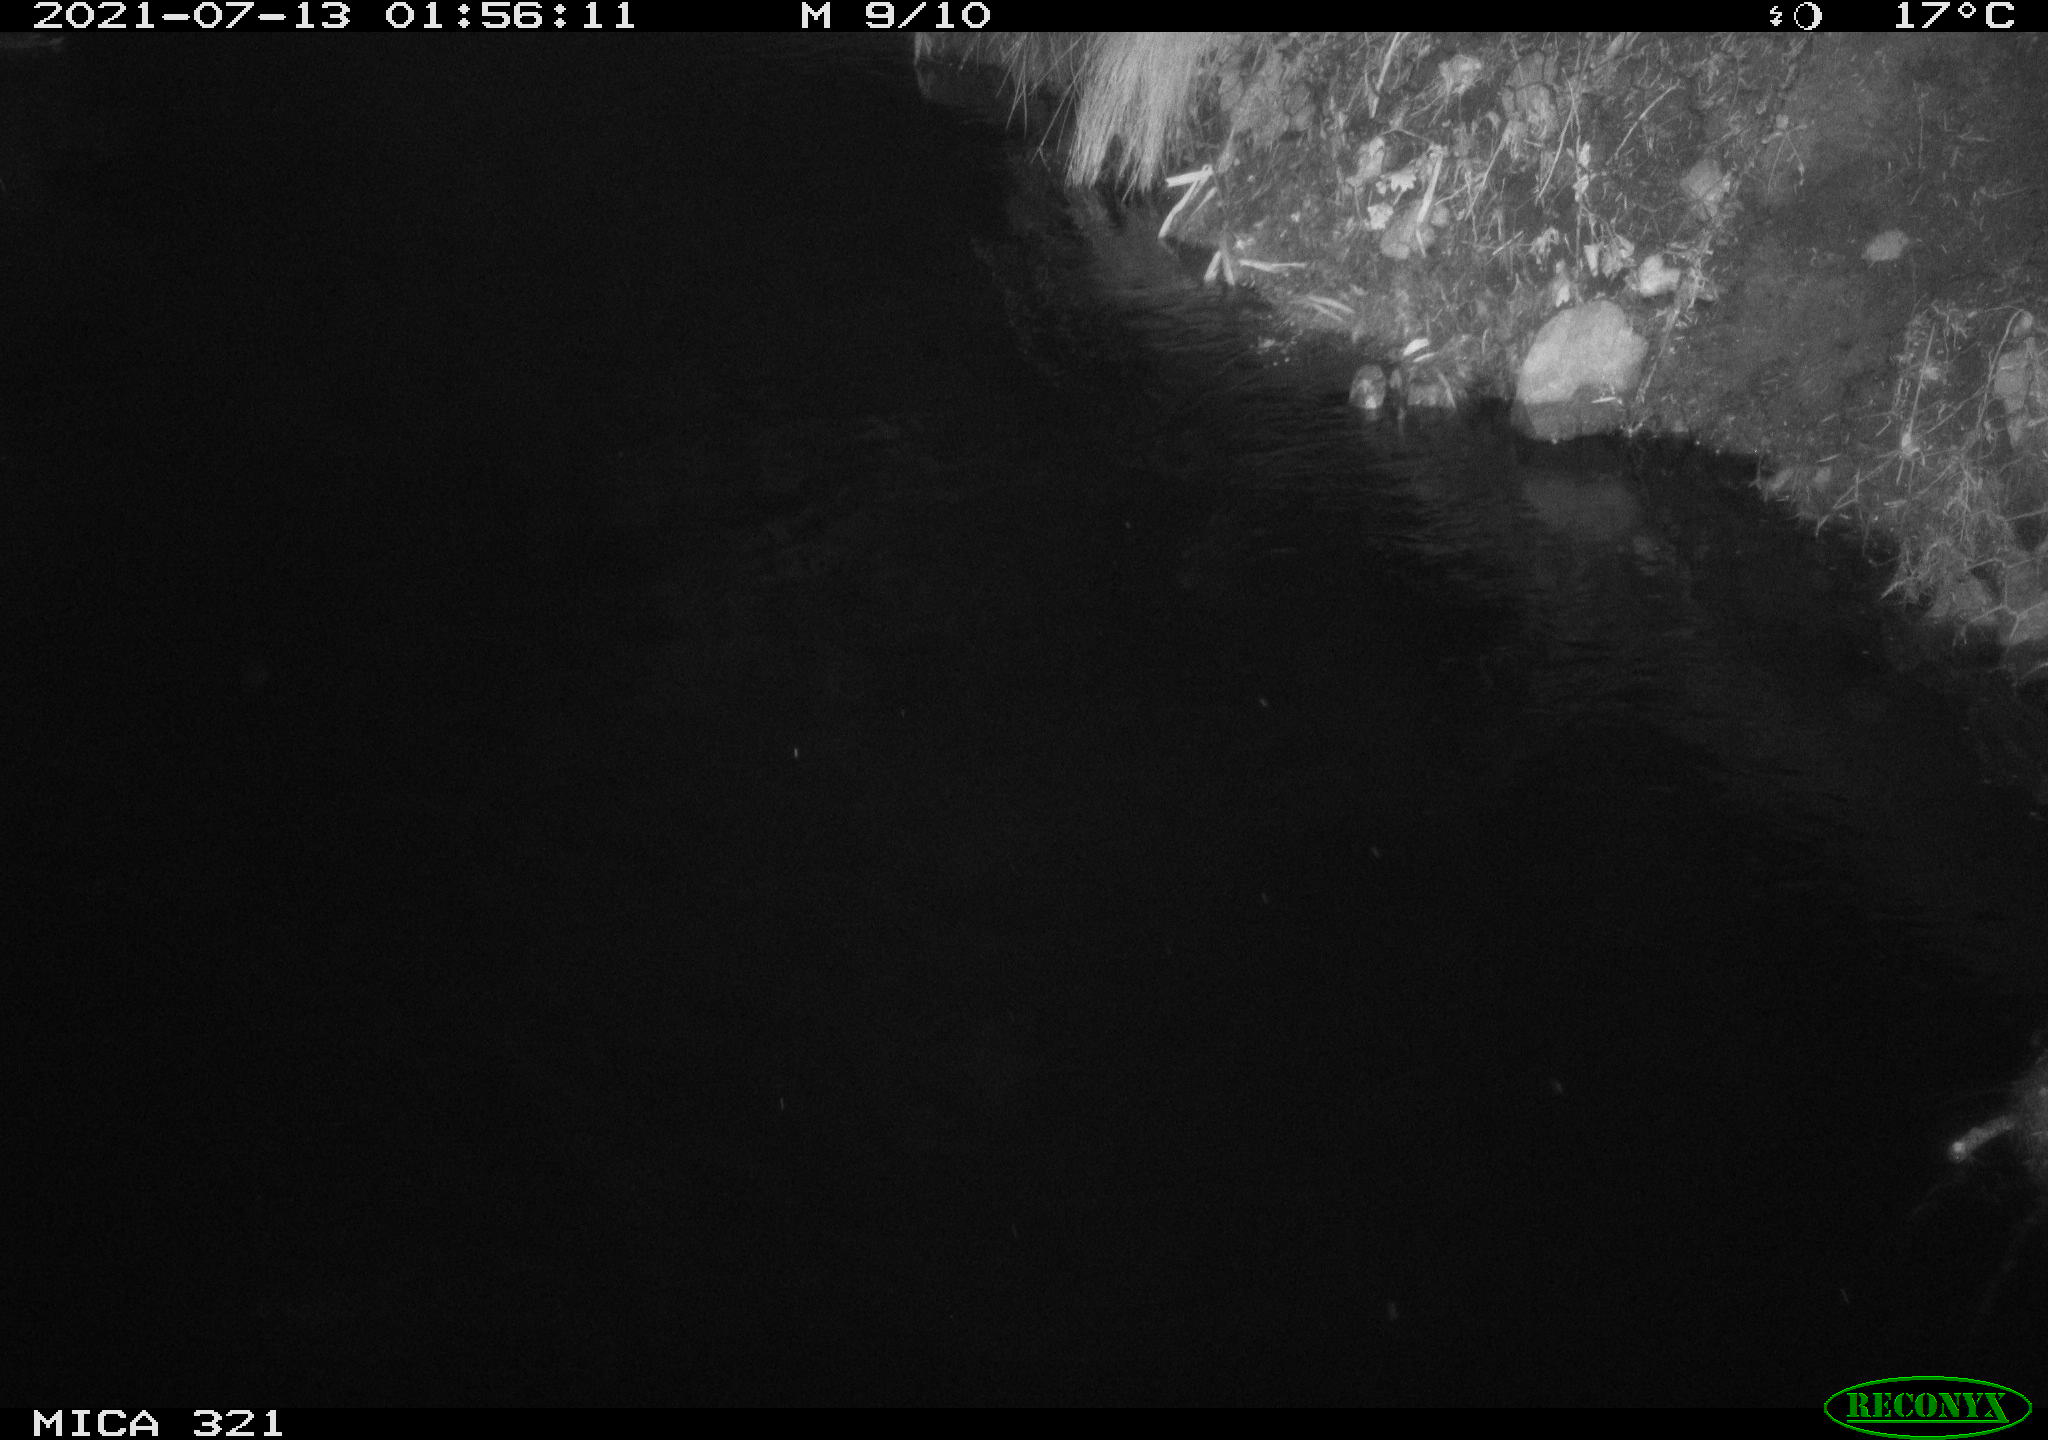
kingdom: Animalia
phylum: Chordata
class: Aves
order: Anseriformes
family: Anatidae
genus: Anas
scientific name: Anas platyrhynchos
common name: Mallard
